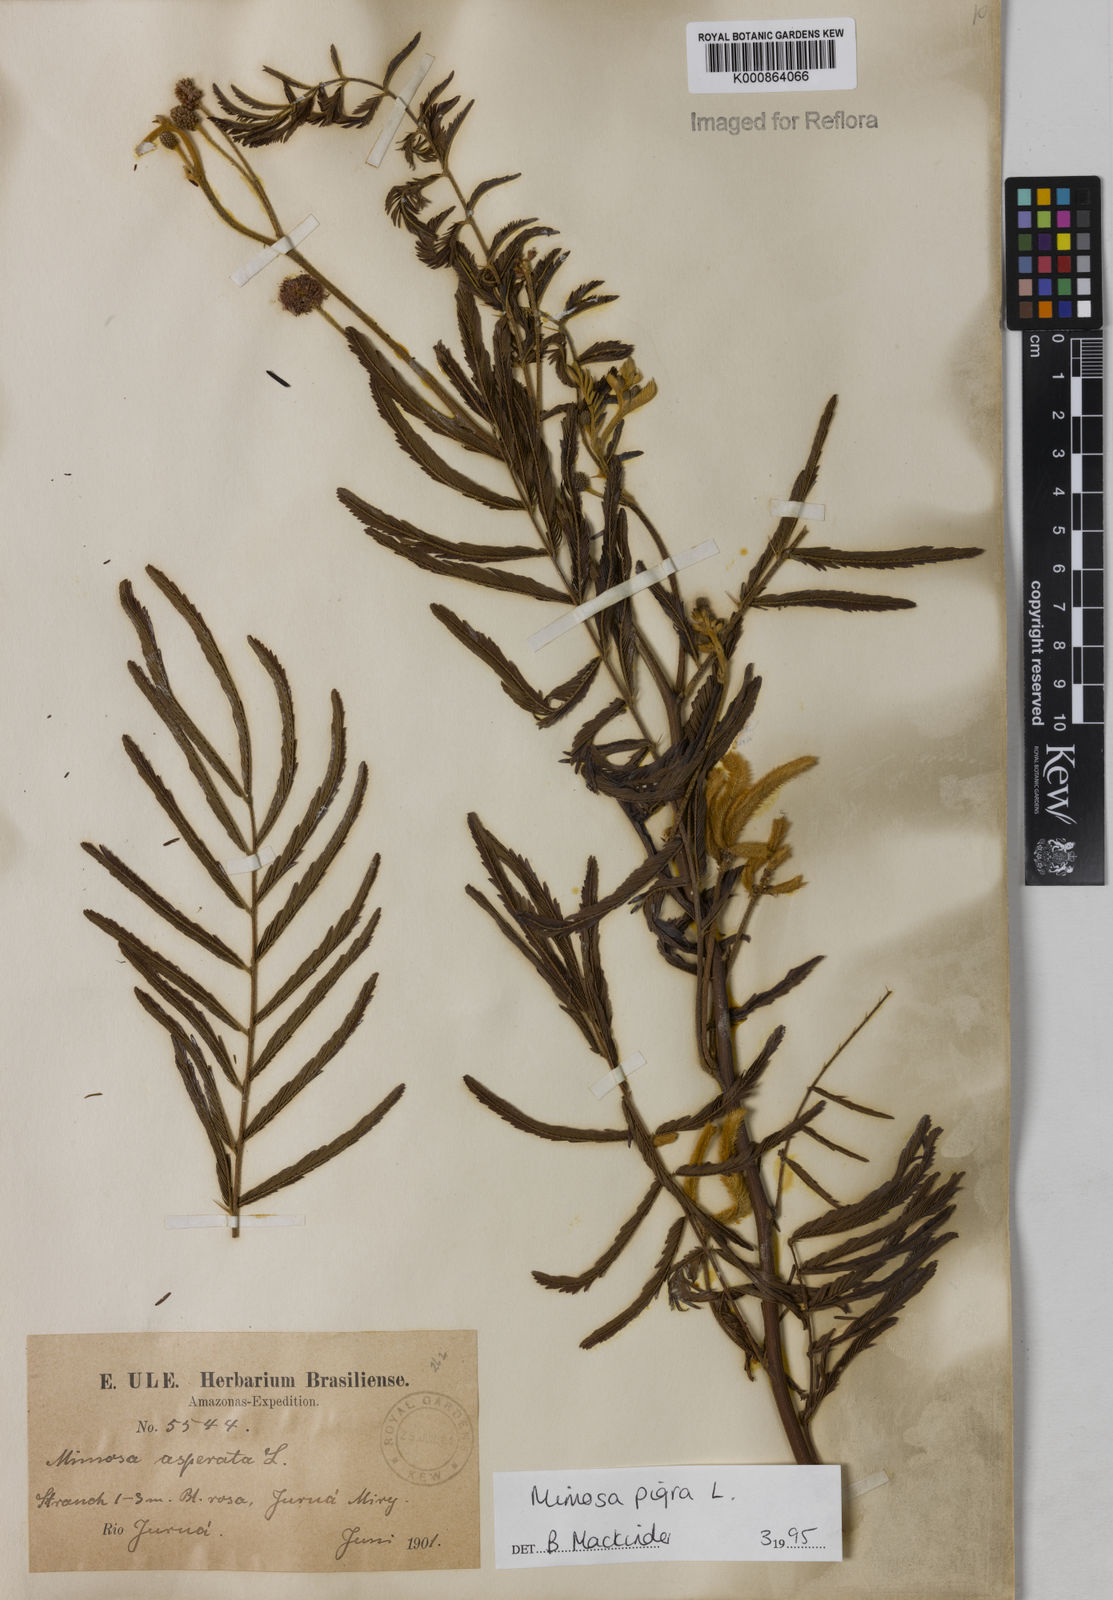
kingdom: Plantae
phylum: Tracheophyta
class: Magnoliopsida
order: Fabales
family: Fabaceae
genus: Mimosa
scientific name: Mimosa pigra
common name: Black mimosa
